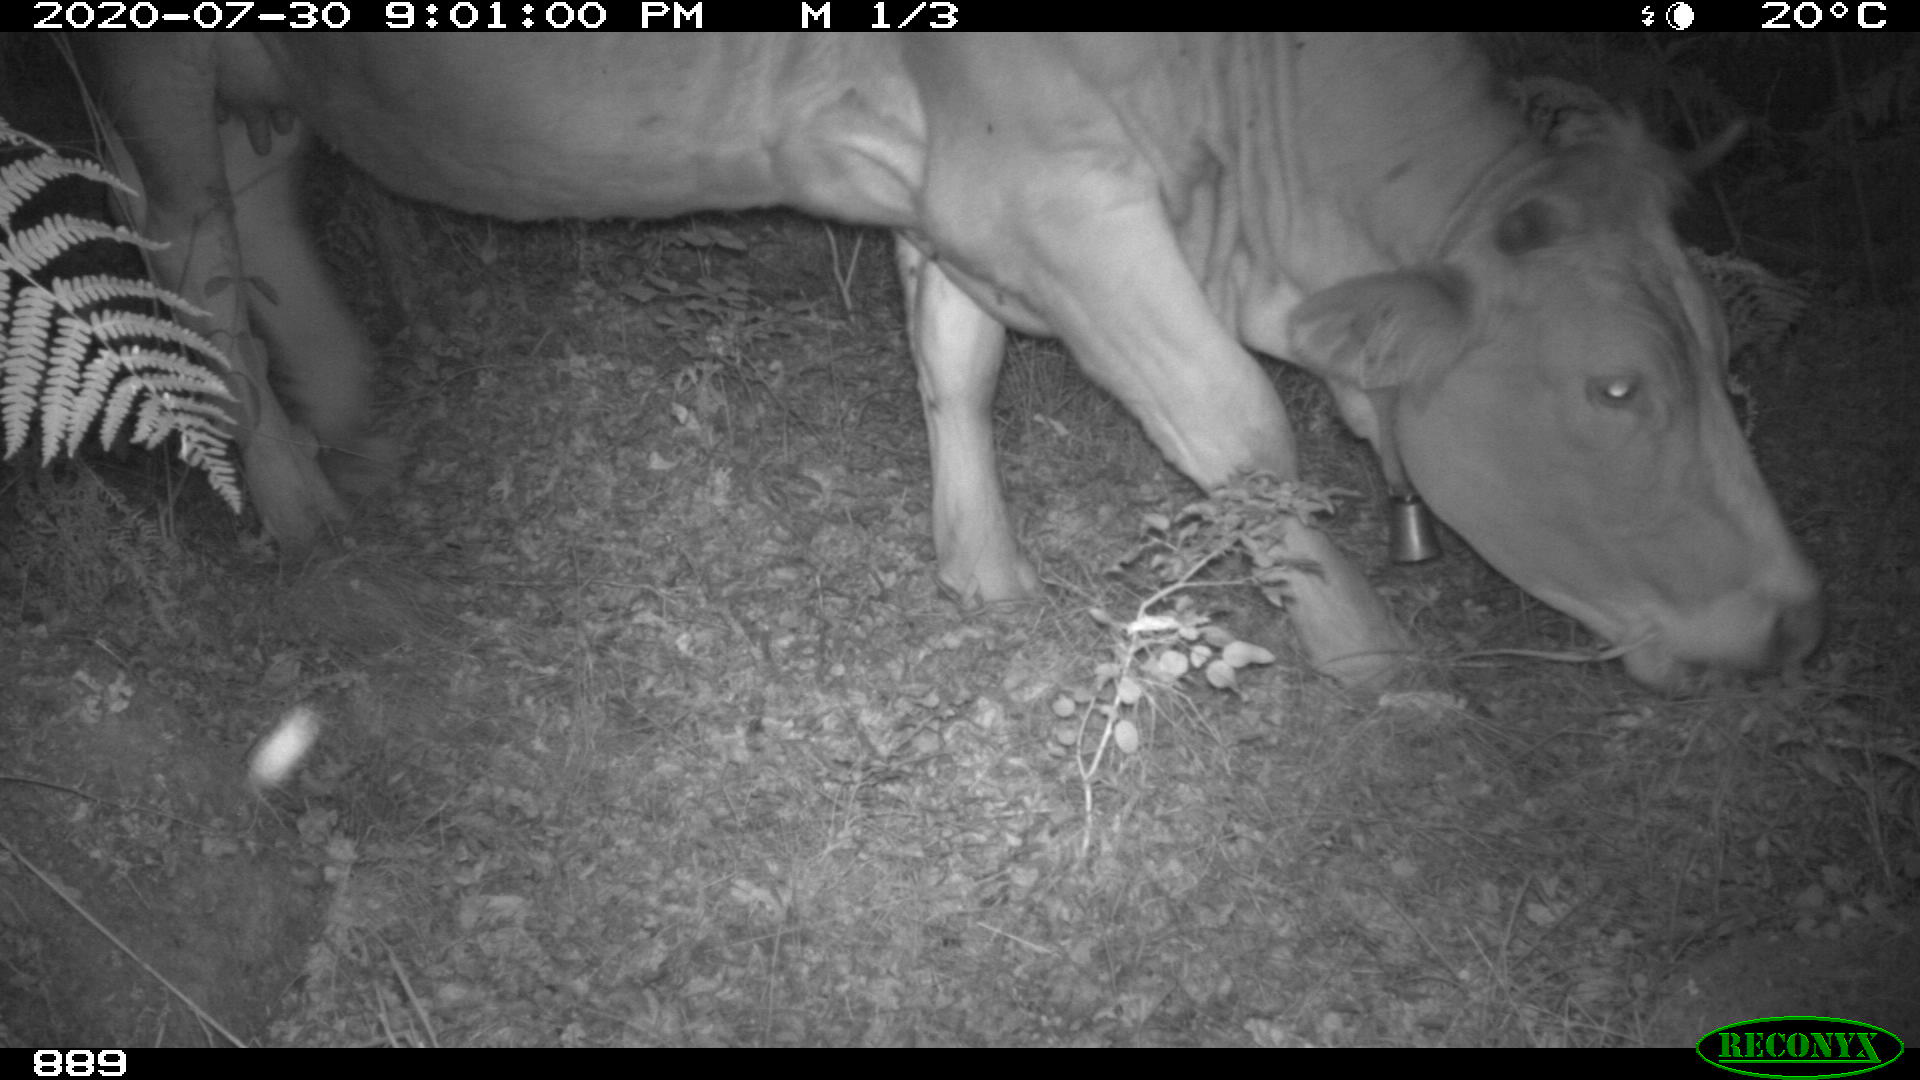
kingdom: Animalia
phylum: Chordata
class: Mammalia
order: Artiodactyla
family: Bovidae
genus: Bos
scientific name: Bos taurus
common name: Domesticated cattle
